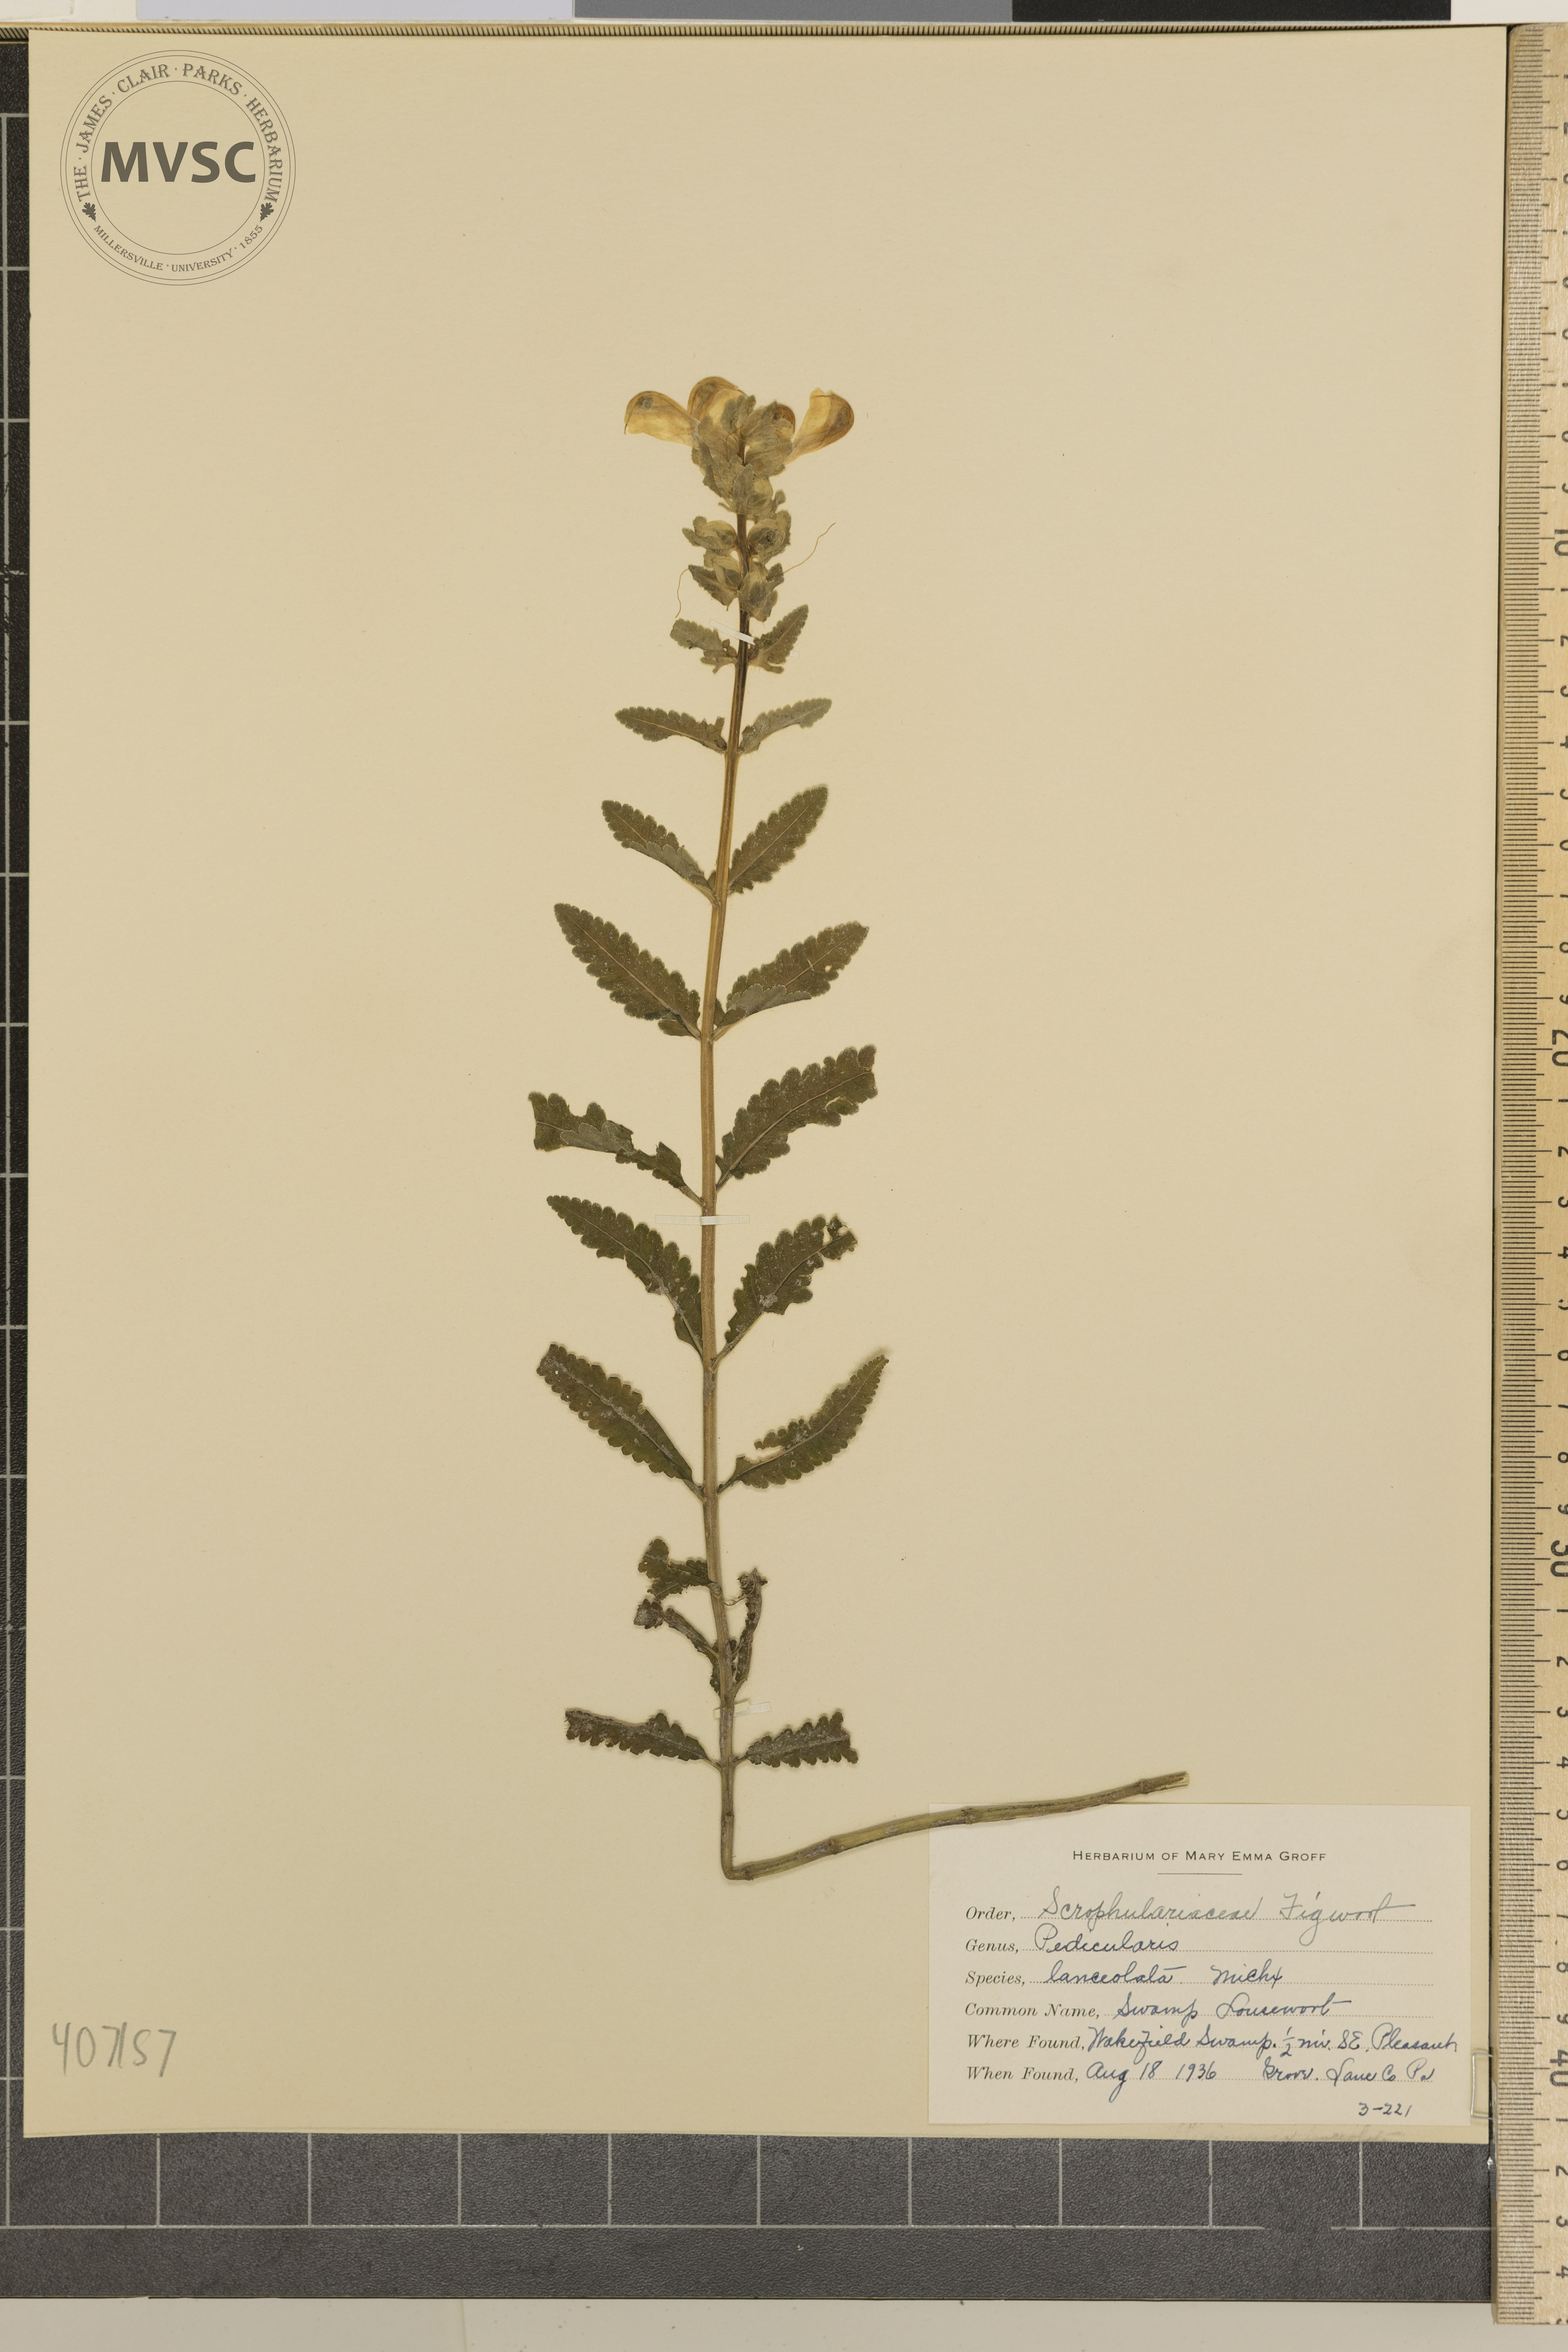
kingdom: Plantae
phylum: Tracheophyta
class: Magnoliopsida
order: Lamiales
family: Orobanchaceae
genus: Pedicularis
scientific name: Pedicularis lanceolata
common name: Swamp Lousewort
